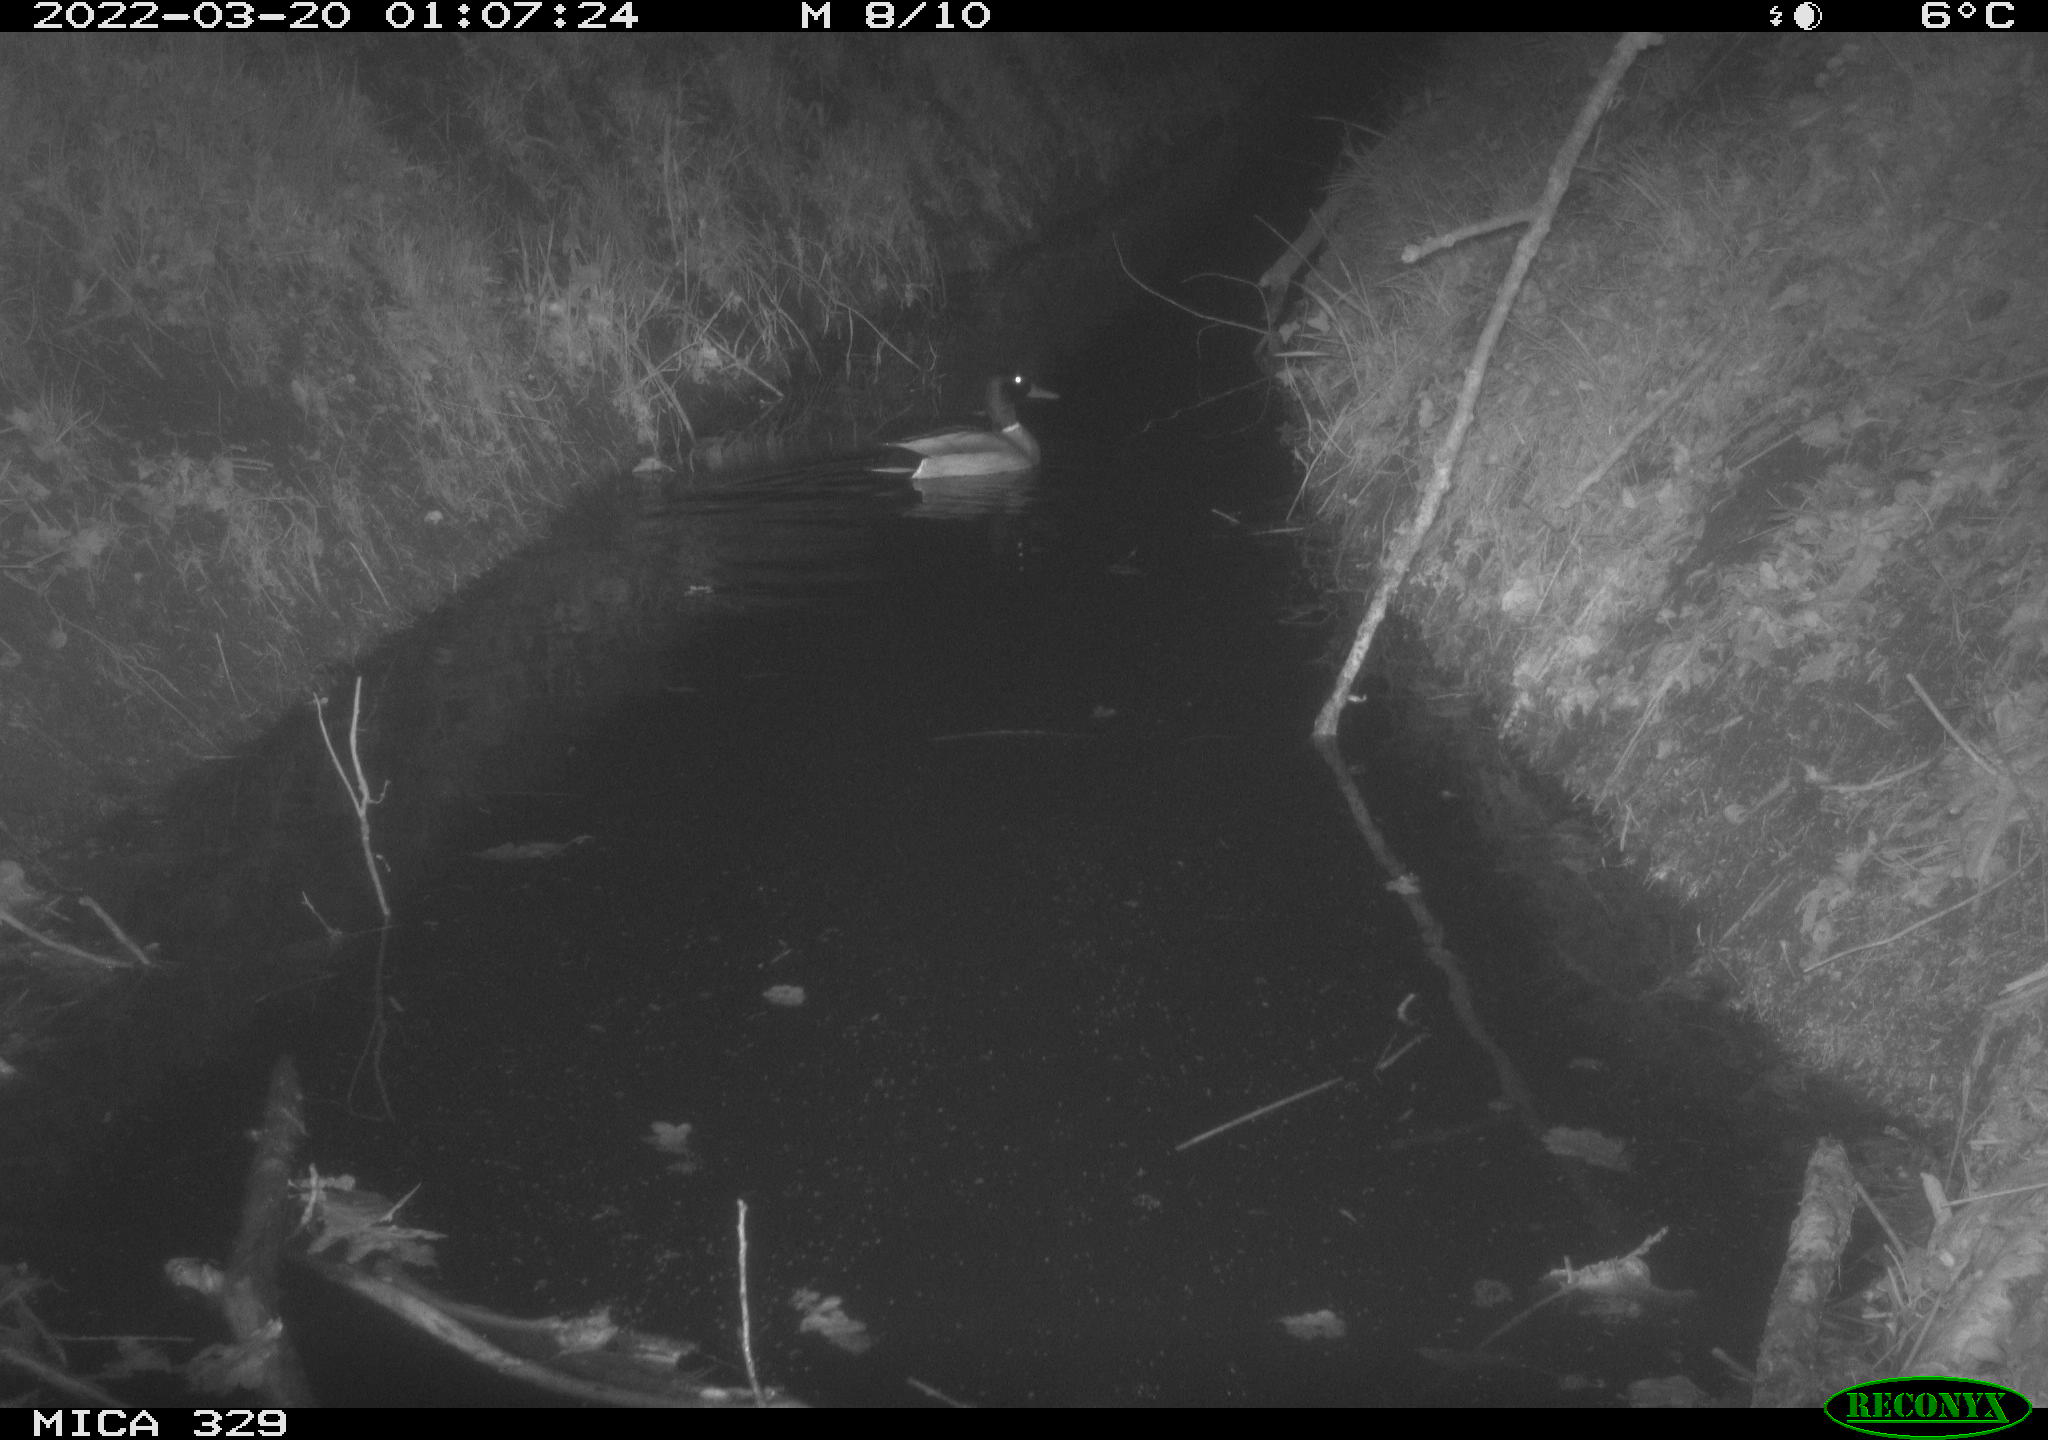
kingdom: Animalia
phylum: Chordata
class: Aves
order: Anseriformes
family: Anatidae
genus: Anas
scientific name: Anas platyrhynchos
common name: Mallard
